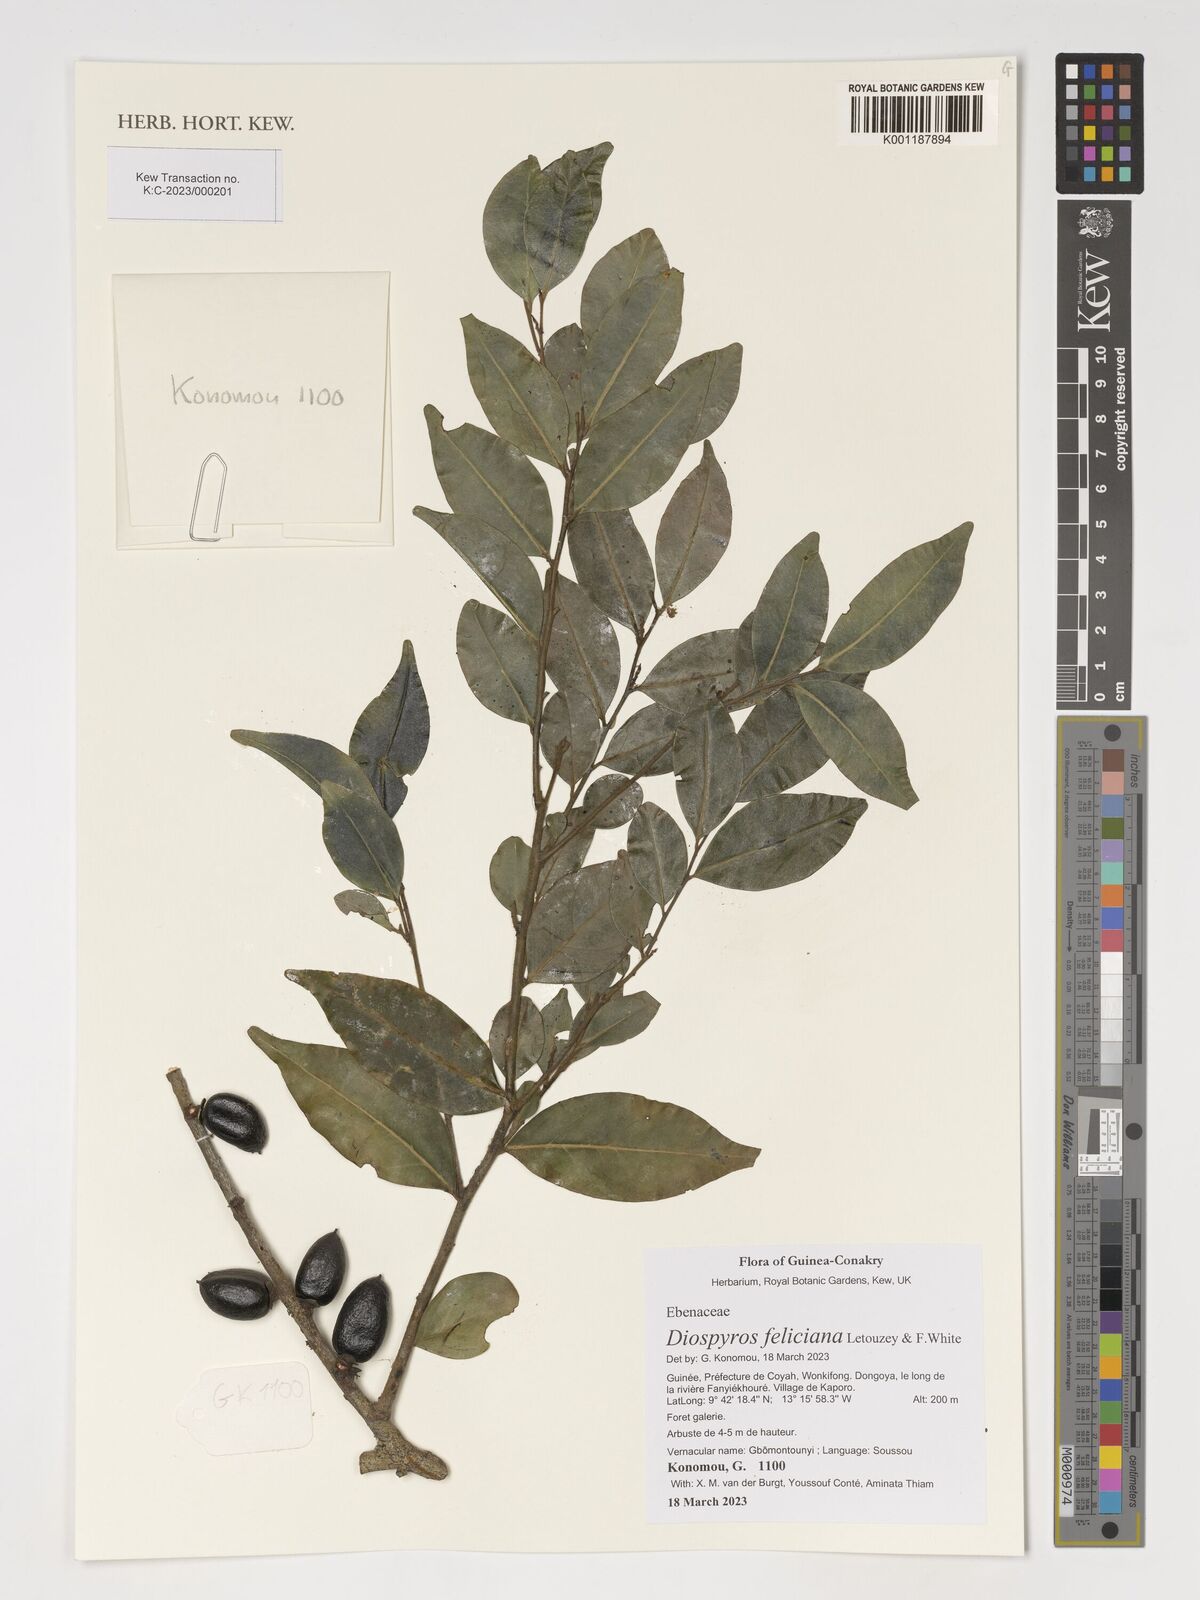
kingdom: Plantae
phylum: Tracheophyta
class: Magnoliopsida
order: Ericales
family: Ebenaceae
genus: Diospyros
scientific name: Diospyros feliciana
